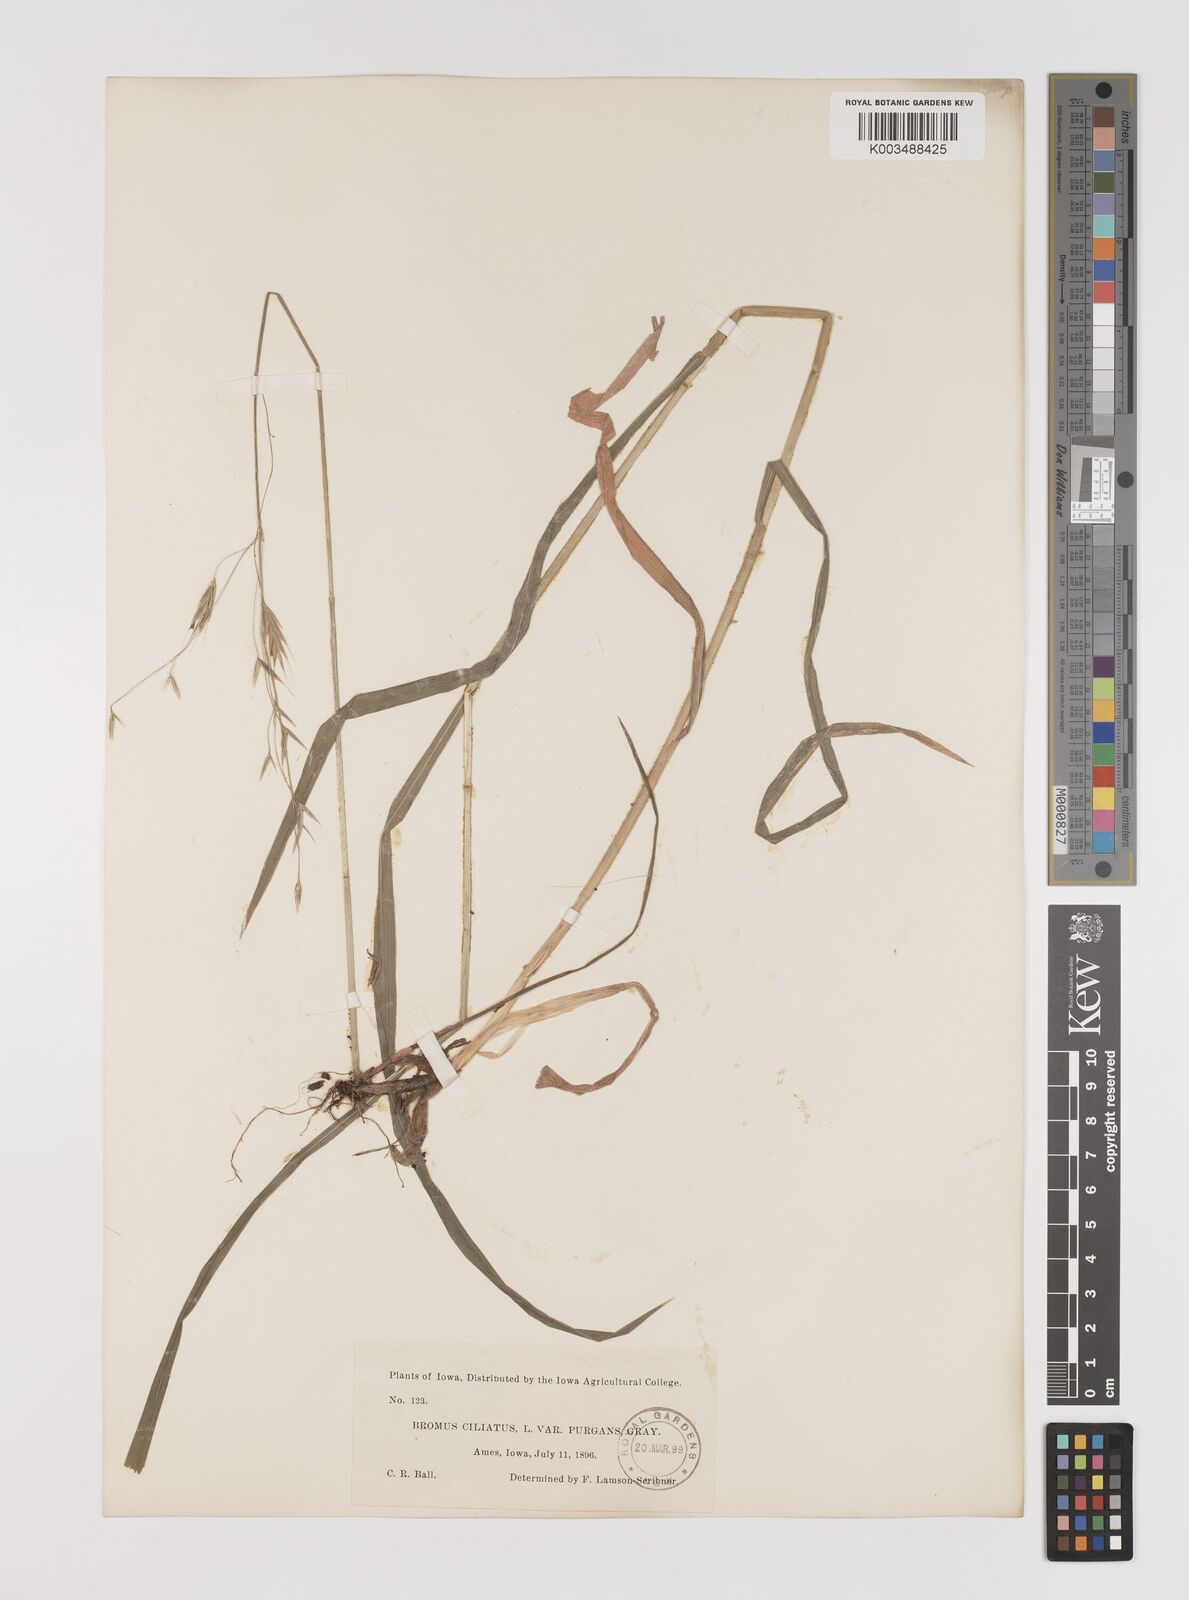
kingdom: Plantae
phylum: Tracheophyta
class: Liliopsida
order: Poales
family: Poaceae
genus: Bromus
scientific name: Bromus ciliatus
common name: Fringe brome
